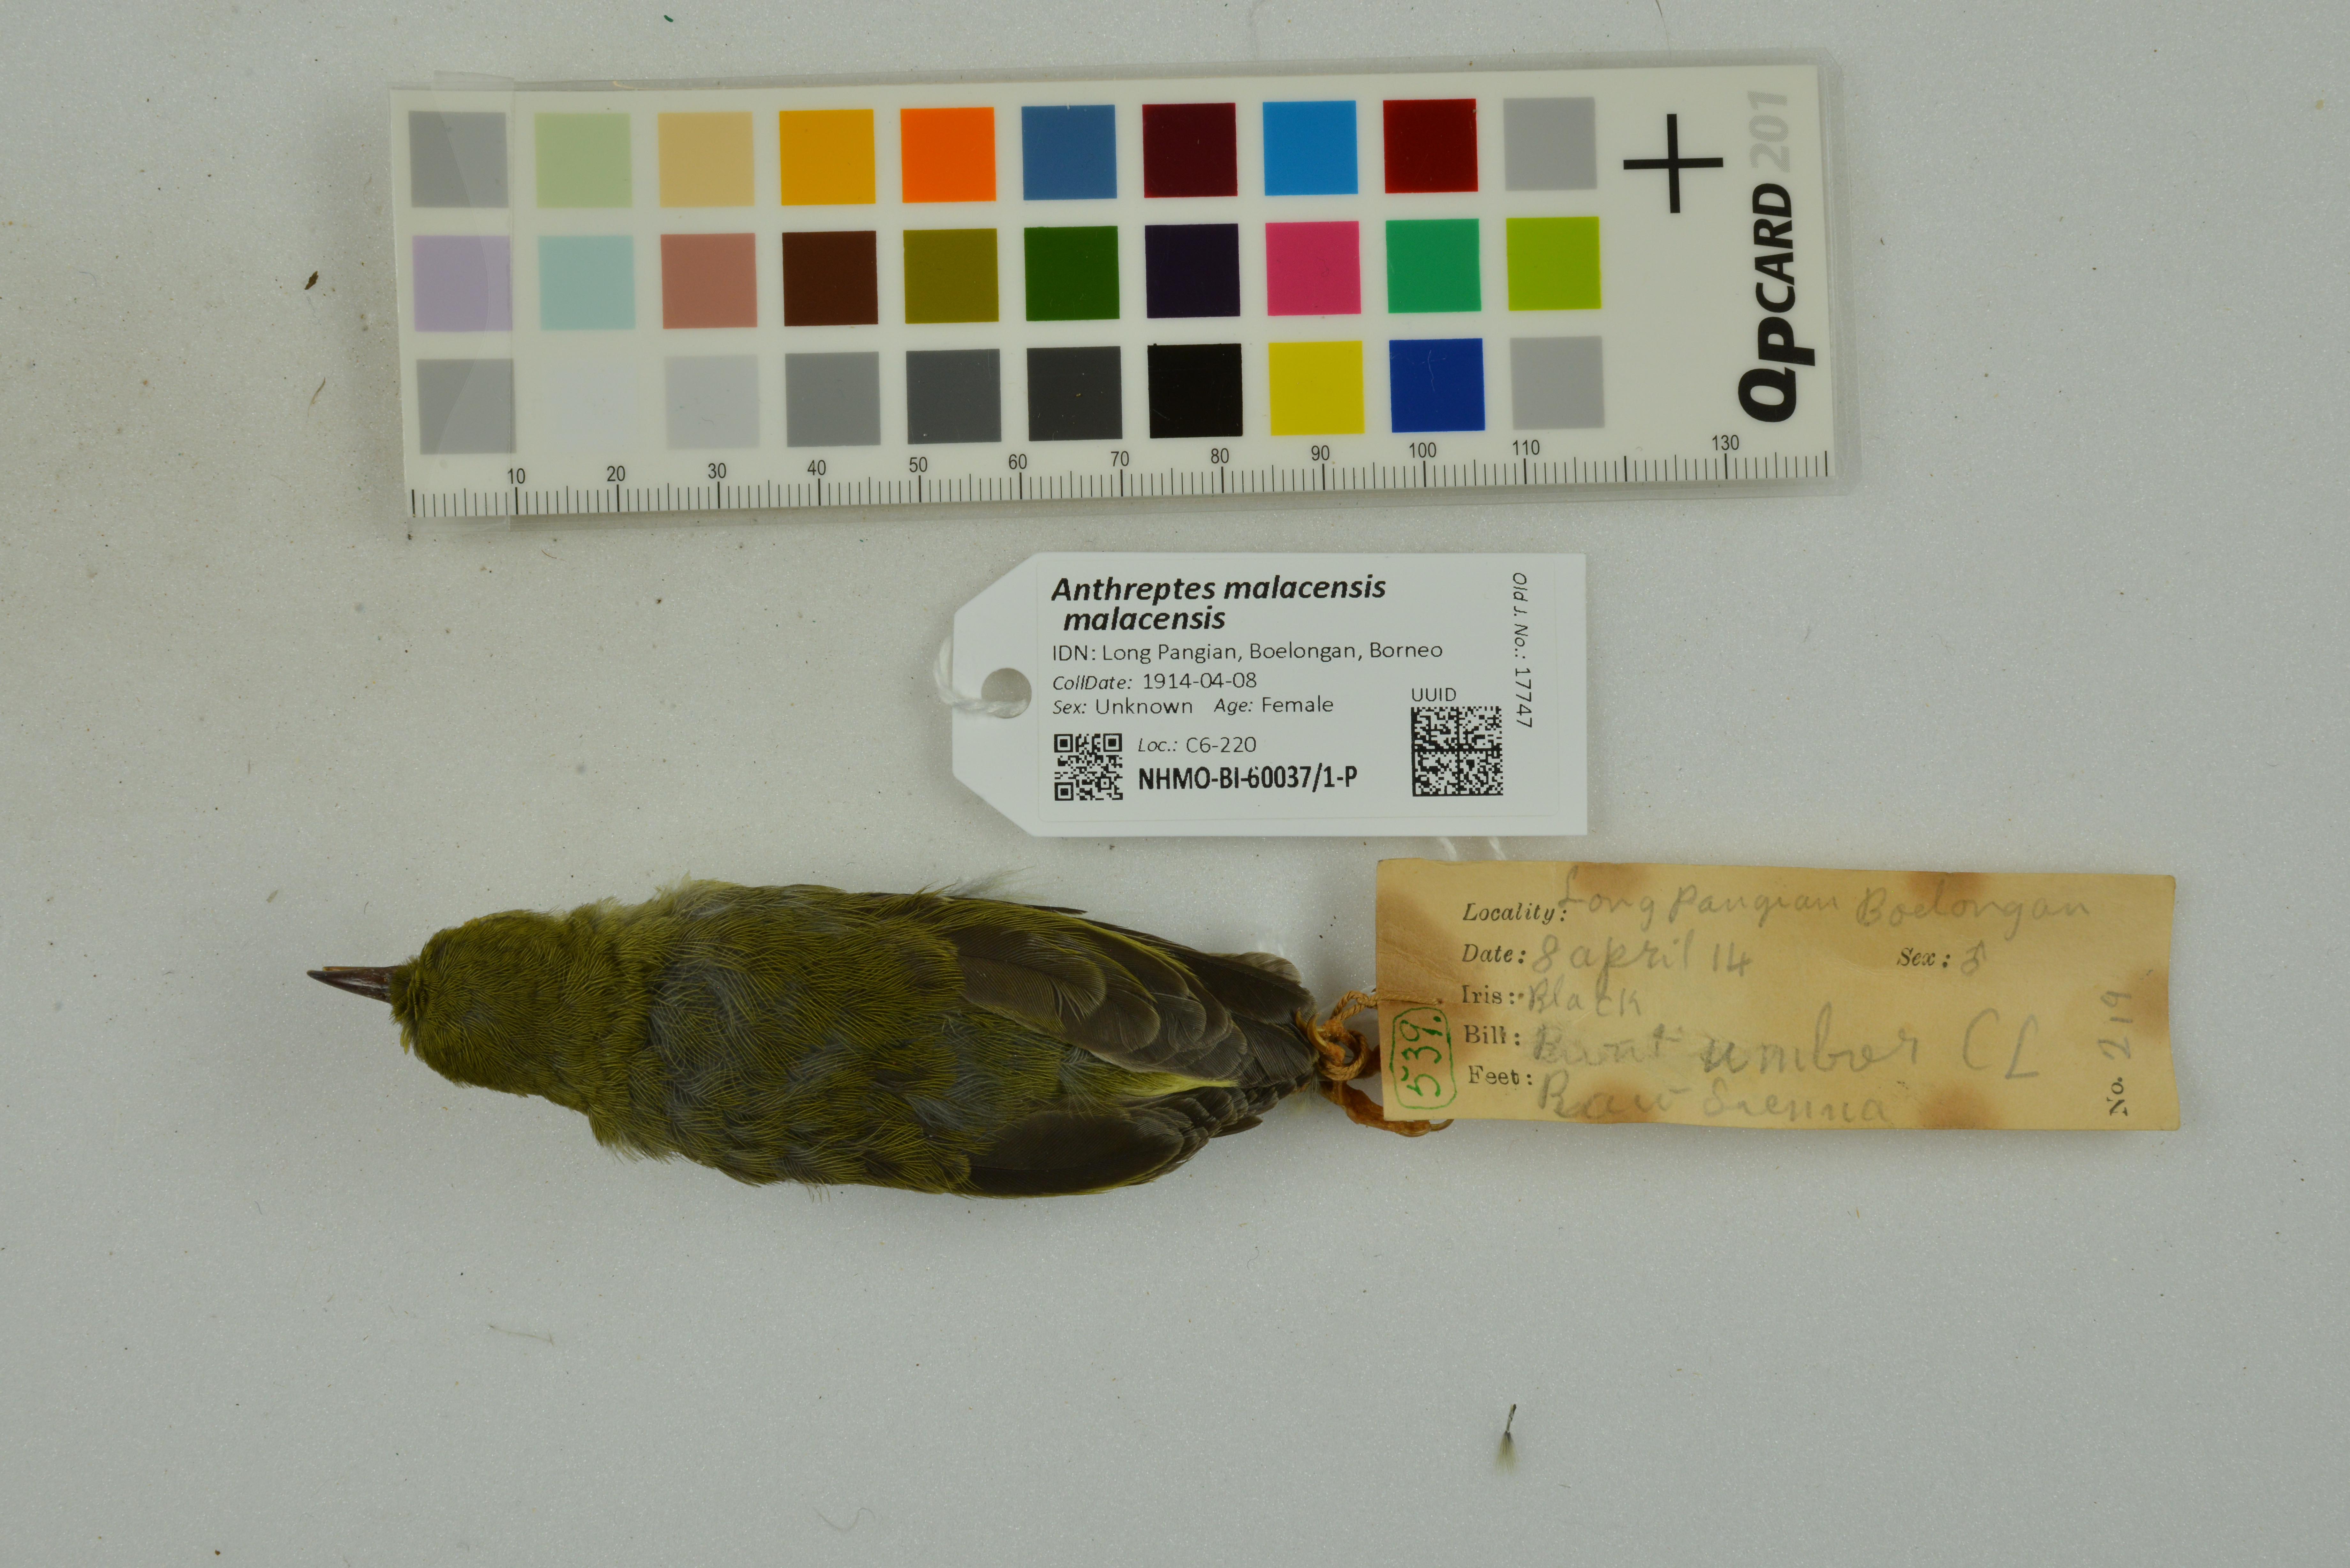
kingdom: Animalia
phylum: Chordata
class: Aves
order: Passeriformes
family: Nectariniidae
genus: Anthreptes
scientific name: Anthreptes malacensis
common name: Brown-throated sunbird
